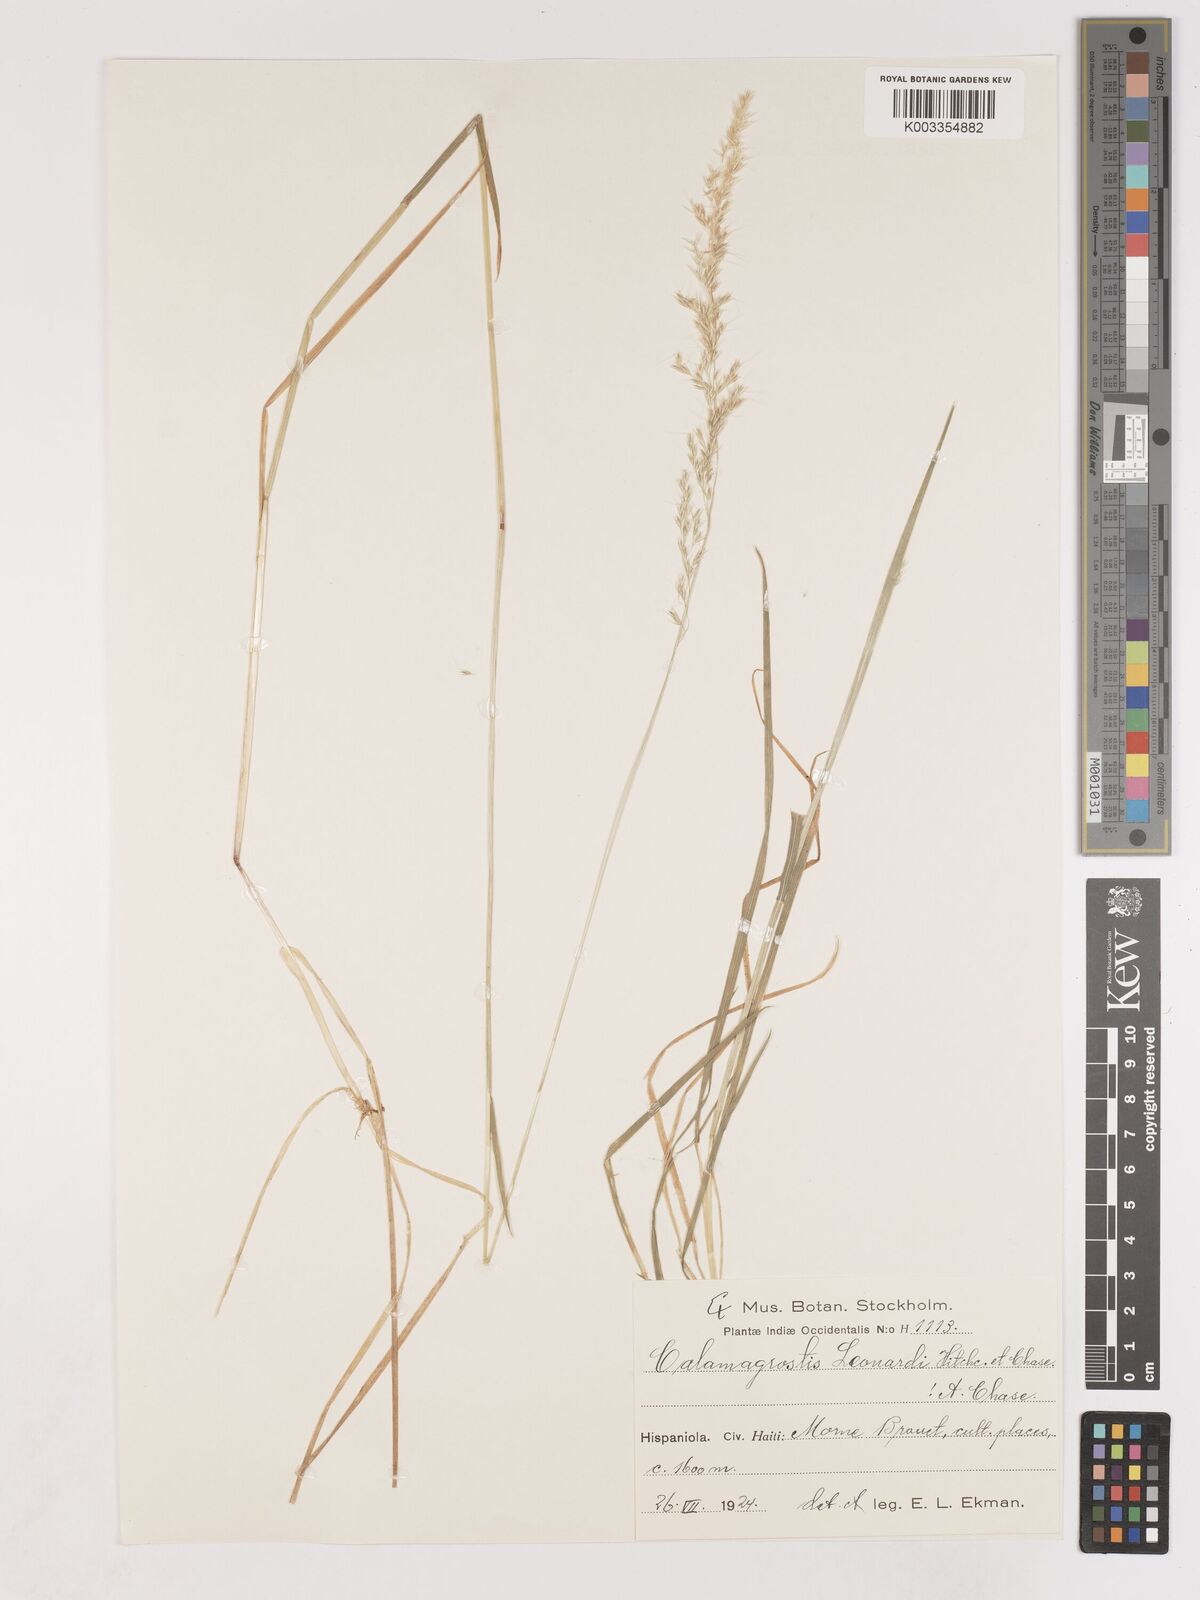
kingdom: Plantae
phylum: Tracheophyta
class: Liliopsida
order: Poales
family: Poaceae
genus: Calamagrostis
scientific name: Calamagrostis
